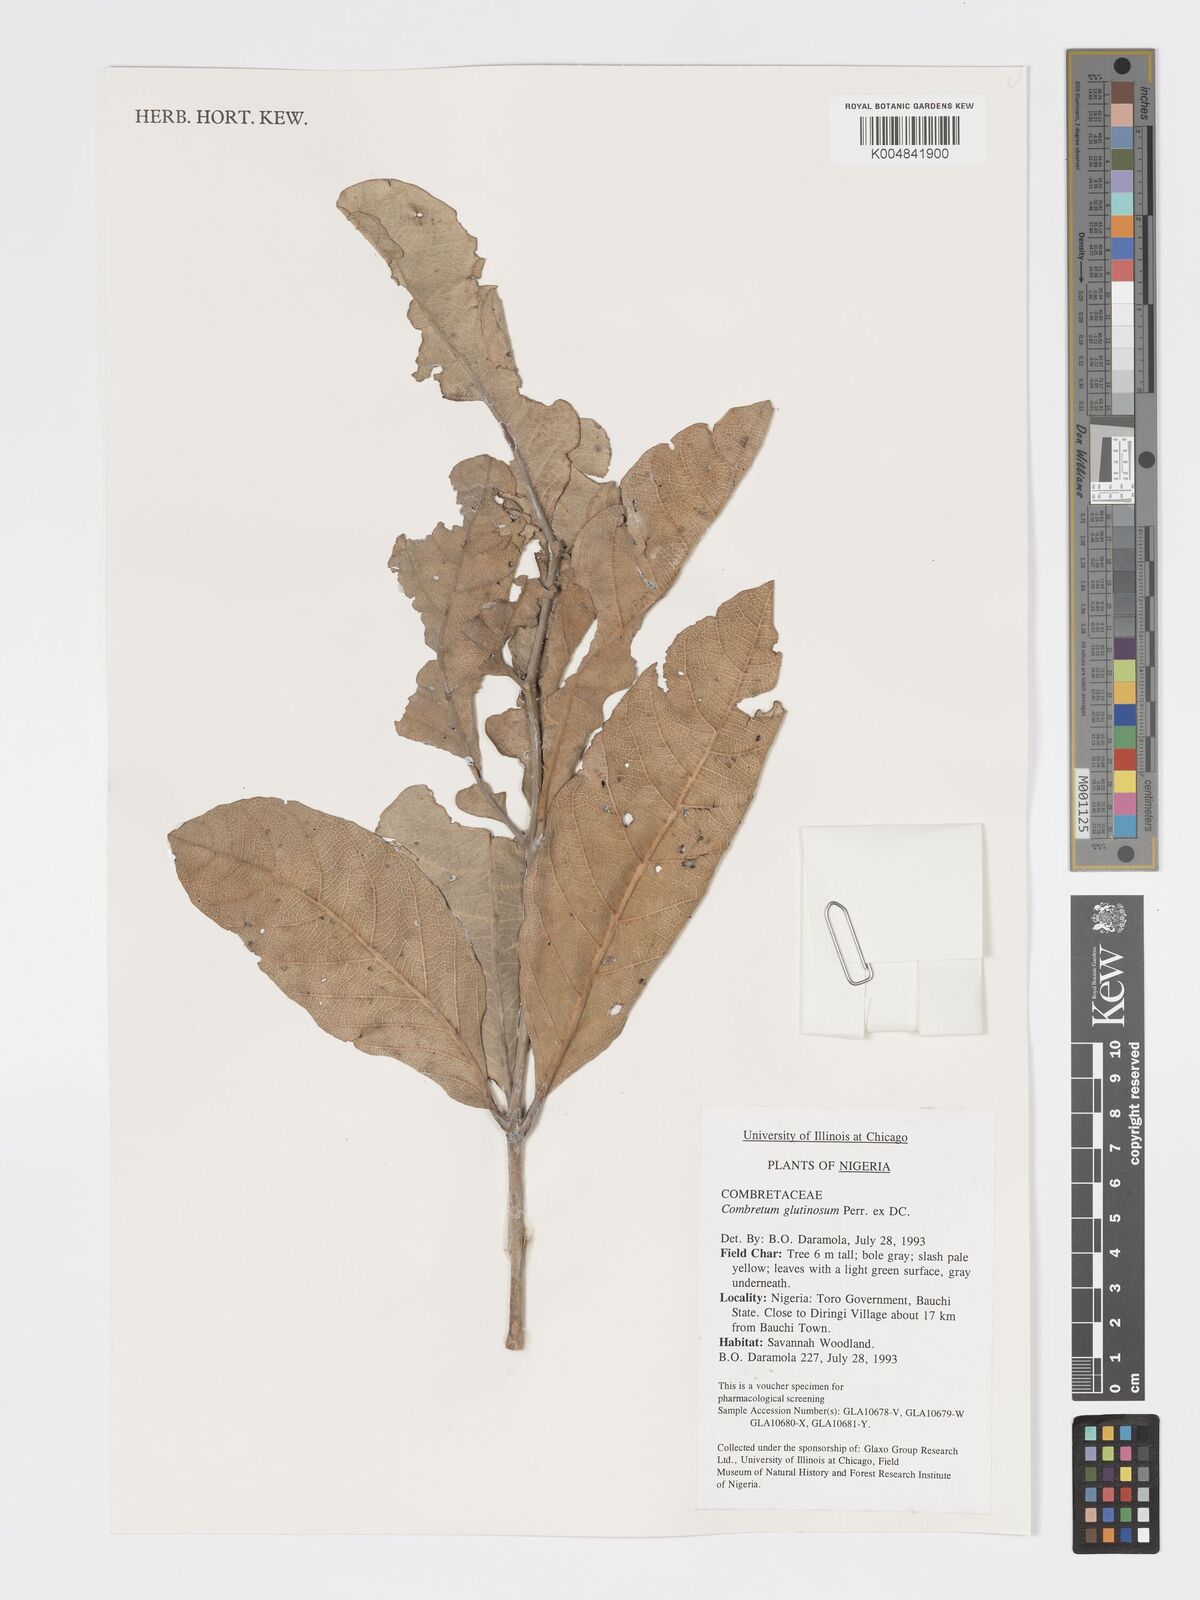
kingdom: Plantae
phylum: Tracheophyta
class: Magnoliopsida
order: Myrtales
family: Combretaceae
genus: Combretum
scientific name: Combretum
